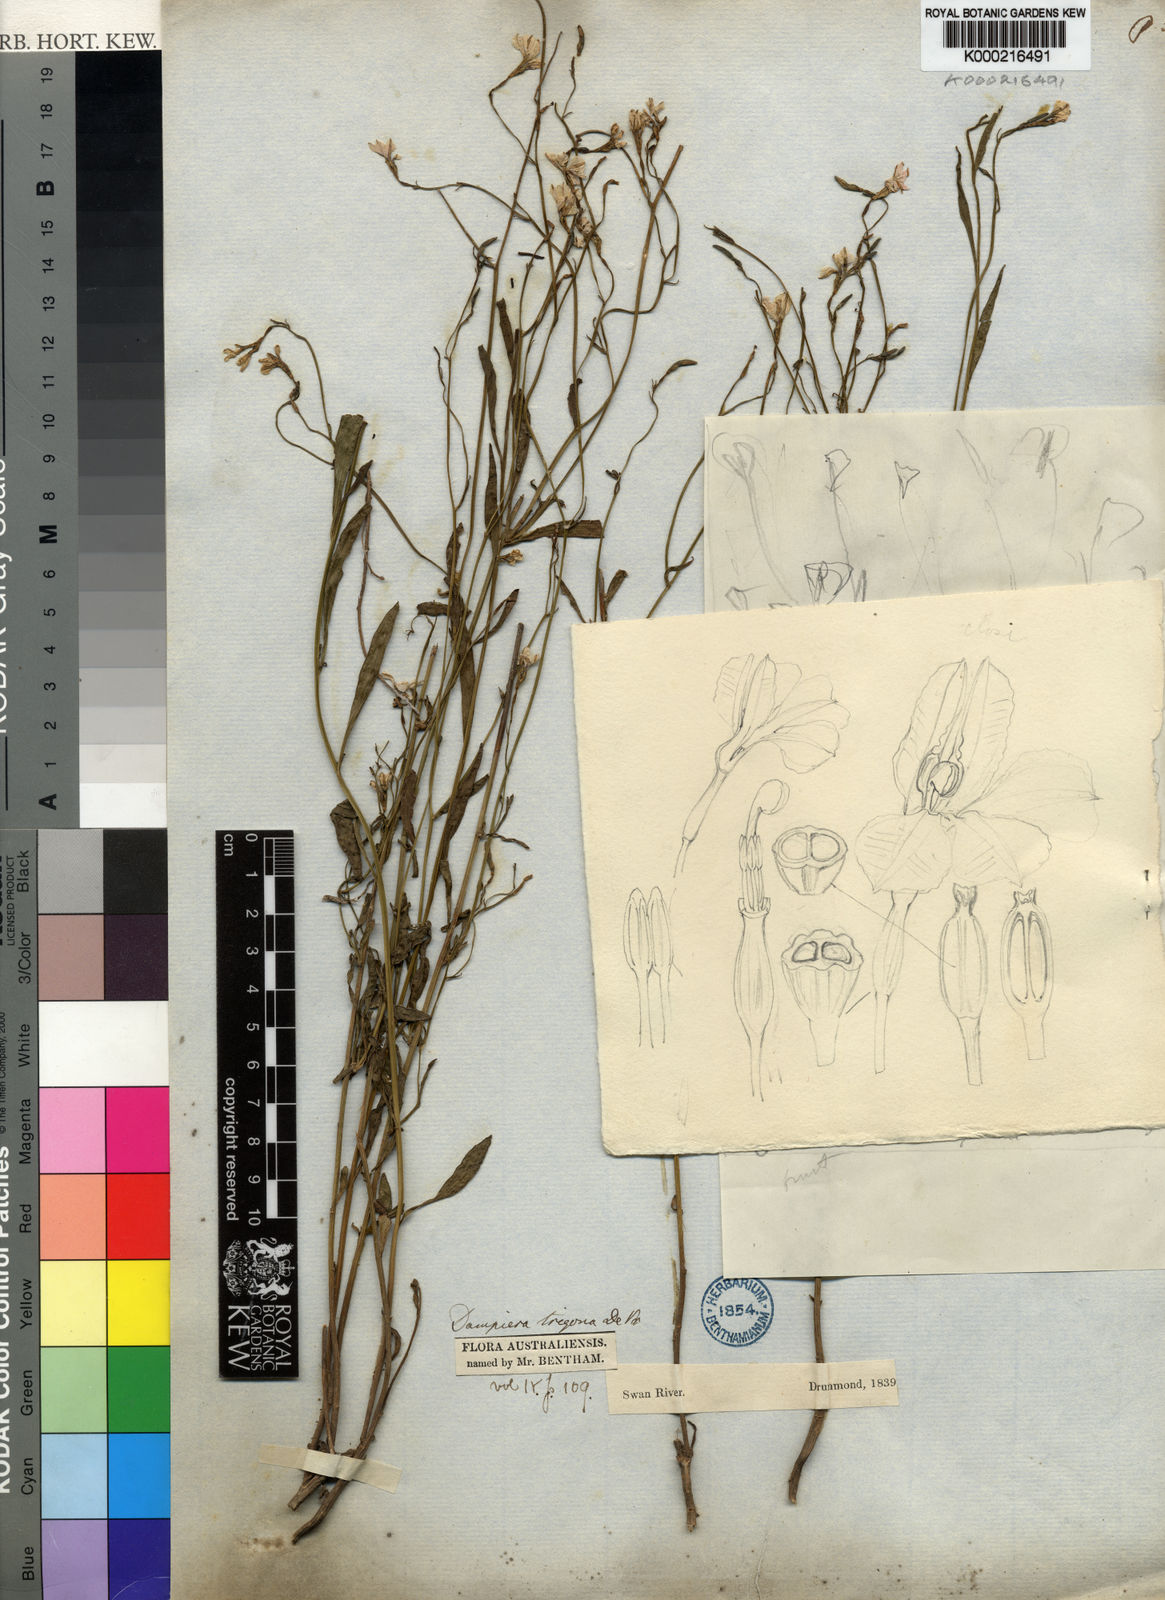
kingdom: Plantae
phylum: Tracheophyta
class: Magnoliopsida
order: Asterales
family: Goodeniaceae
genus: Dampiera
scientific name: Dampiera trigona
